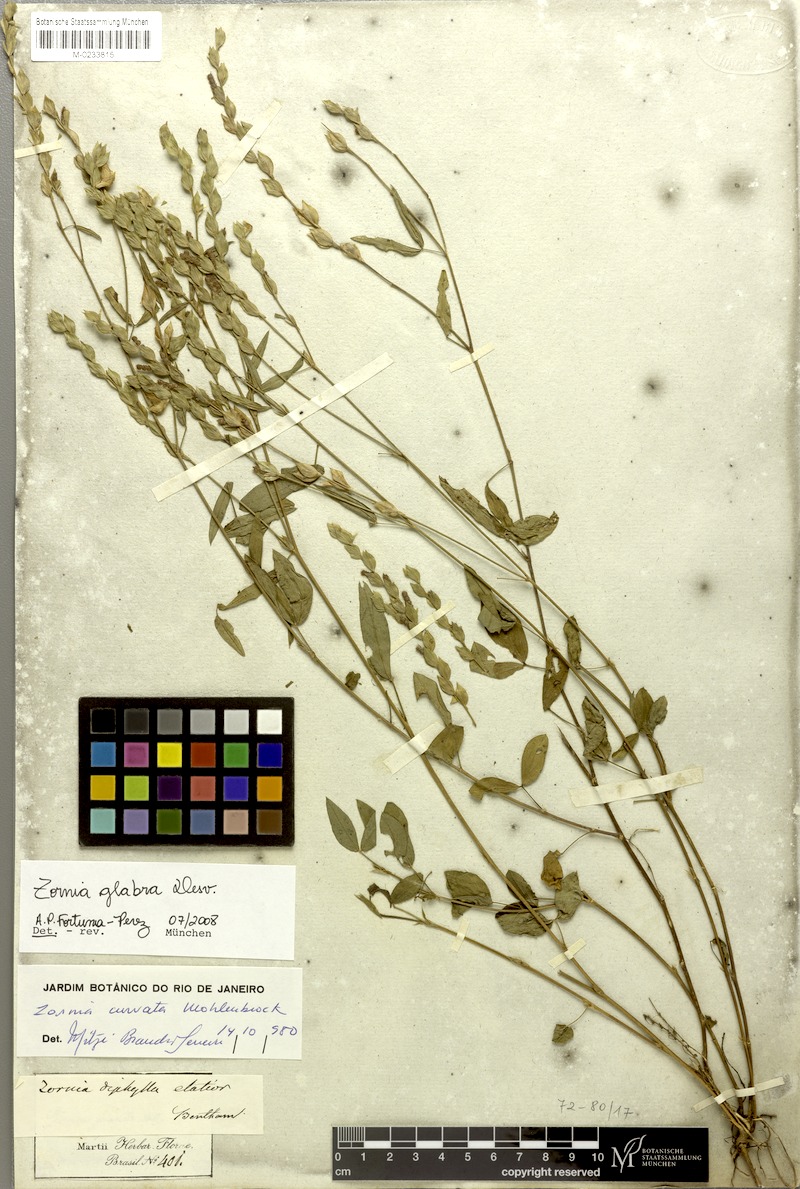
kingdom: Plantae
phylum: Tracheophyta
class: Magnoliopsida
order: Fabales
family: Fabaceae
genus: Zornia
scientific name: Zornia glabra
